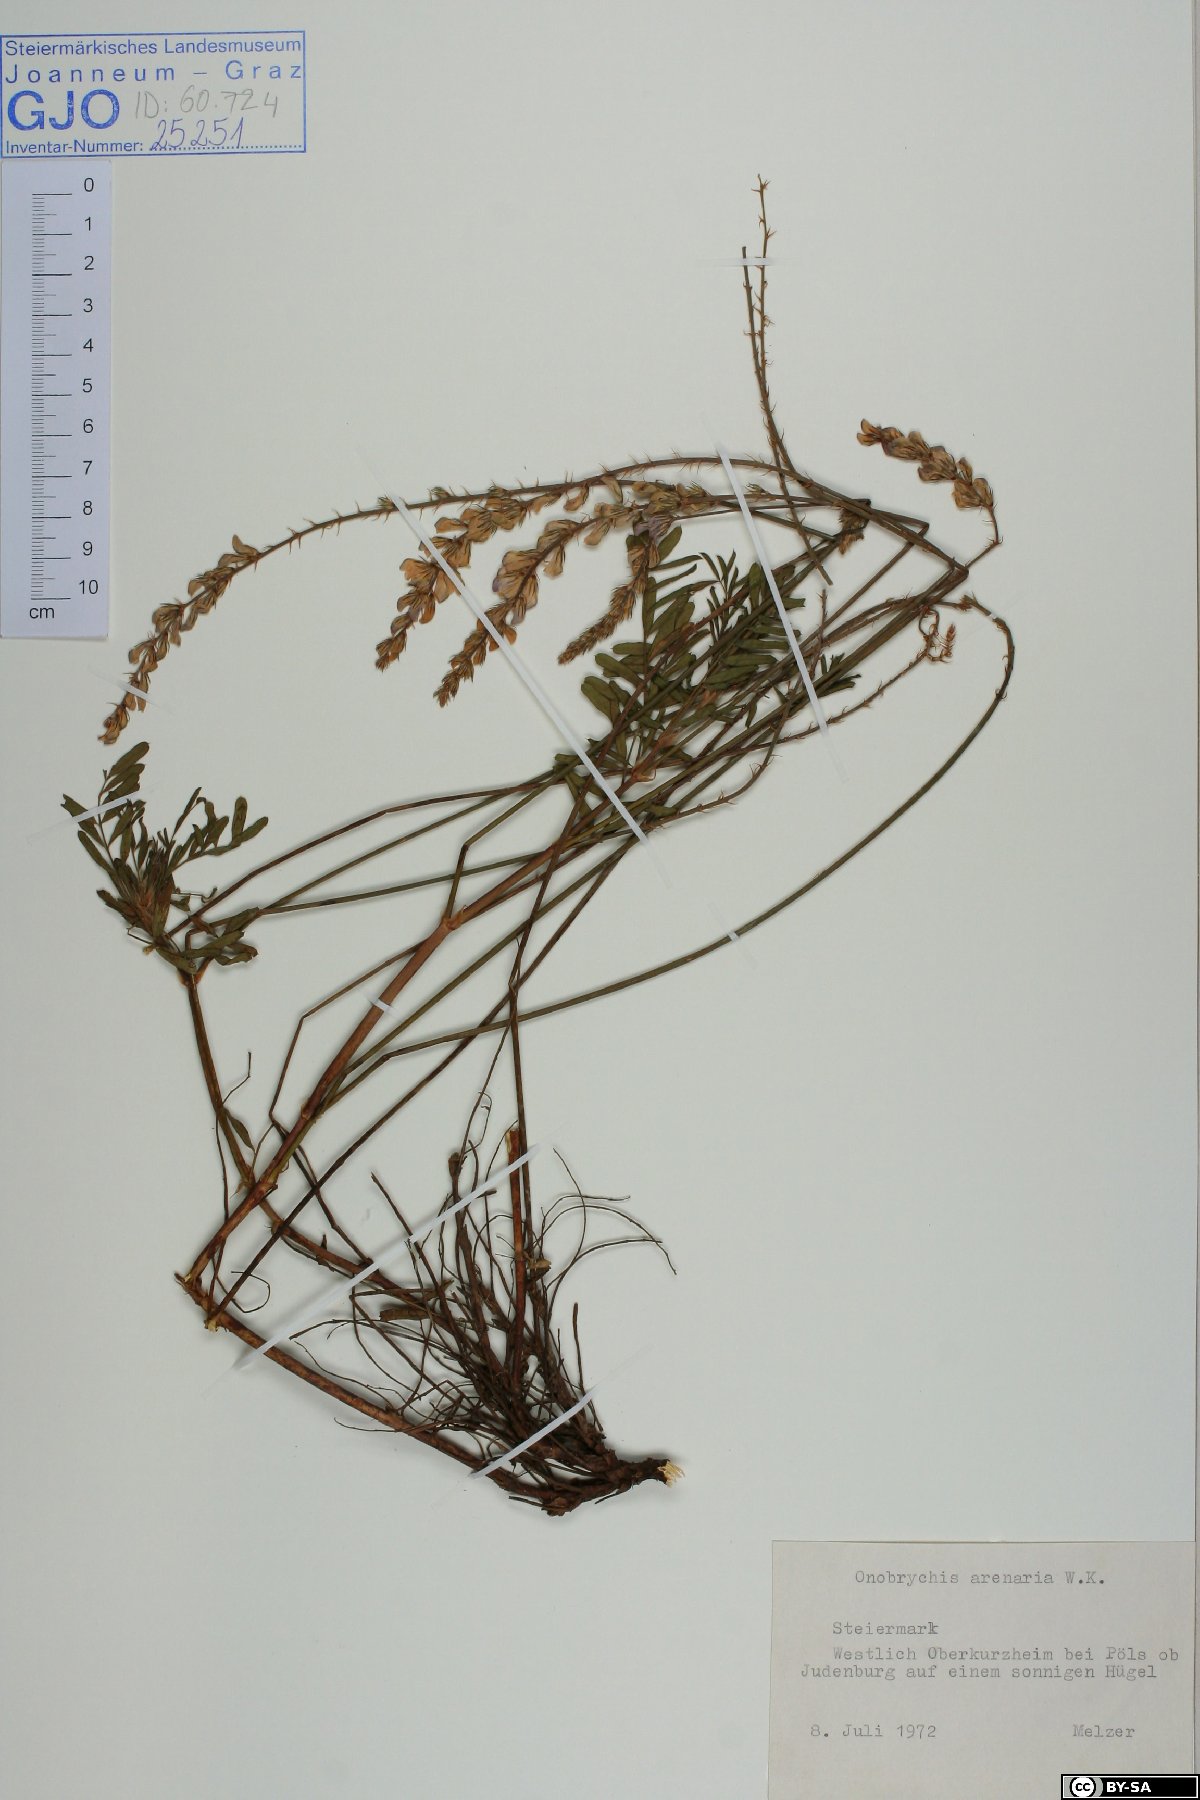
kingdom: Plantae
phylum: Tracheophyta
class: Magnoliopsida
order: Fabales
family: Fabaceae
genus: Onobrychis
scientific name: Onobrychis arenaria
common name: Sand esparcet
